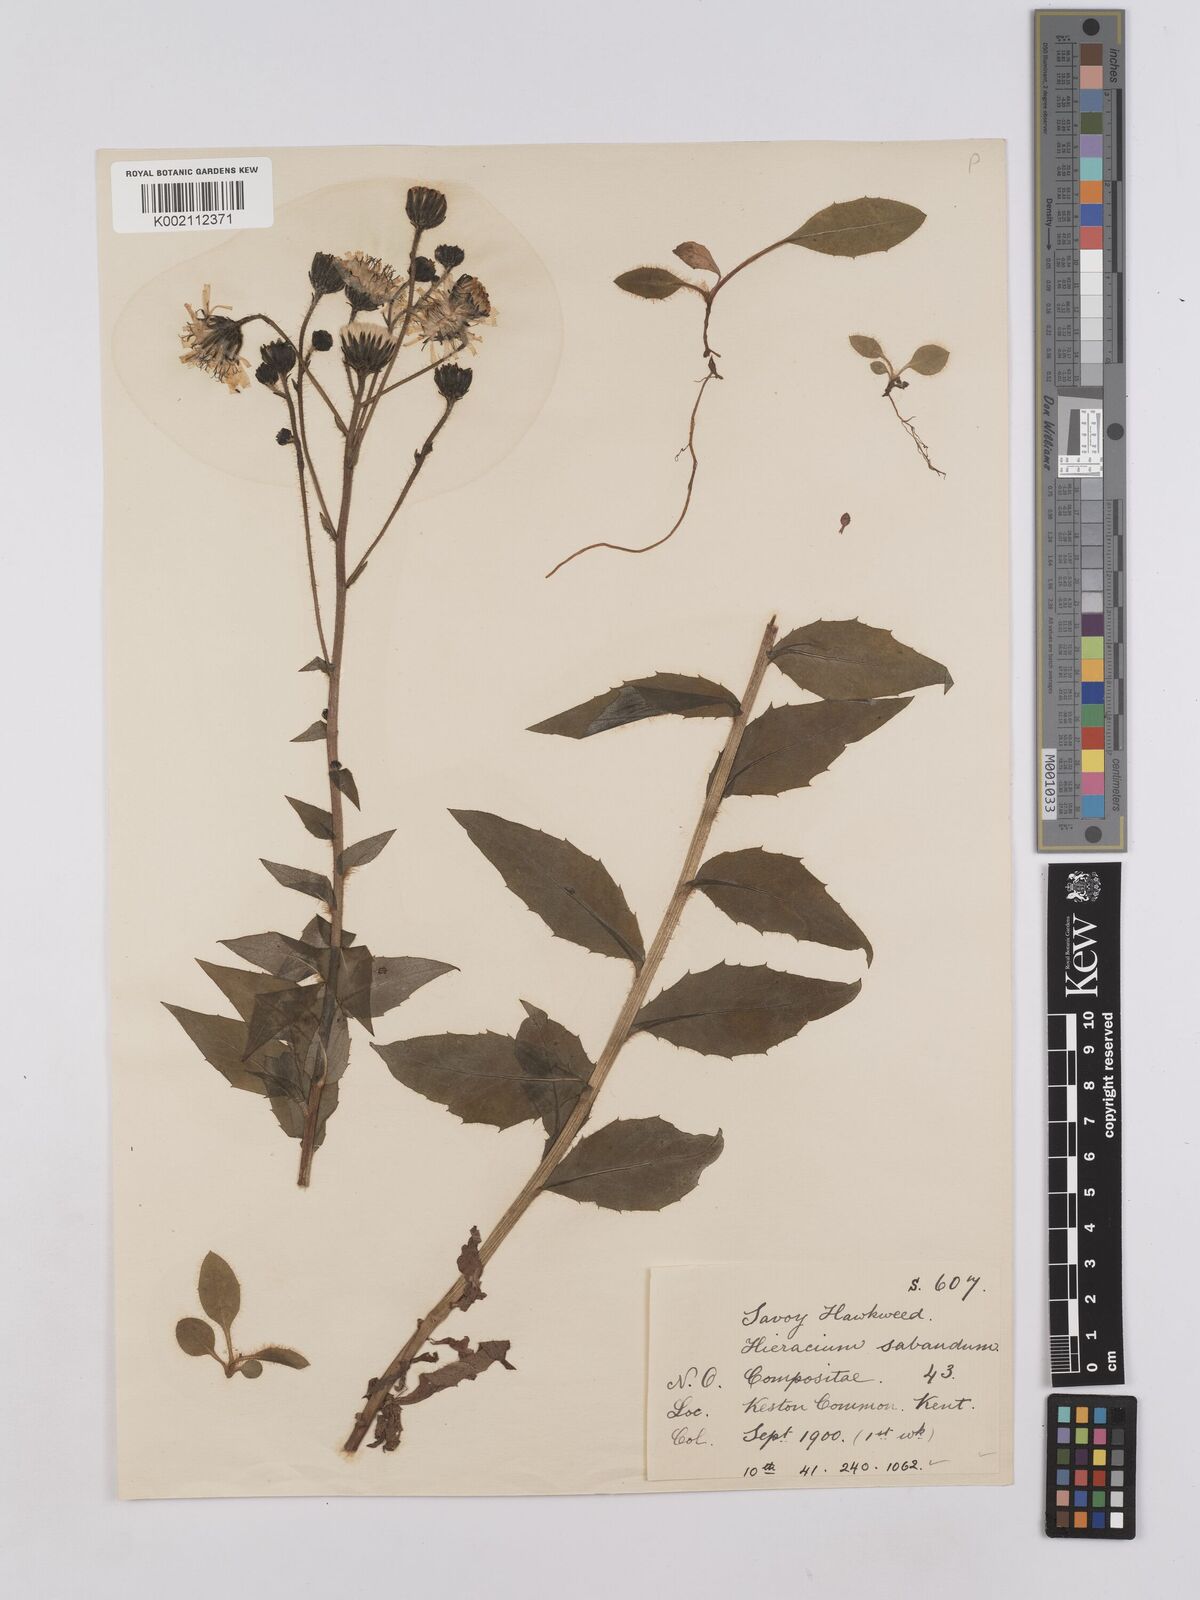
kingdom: Plantae
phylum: Tracheophyta
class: Magnoliopsida
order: Asterales
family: Asteraceae
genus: Hieracium
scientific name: Hieracium sabaudum
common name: New england hawkweed
